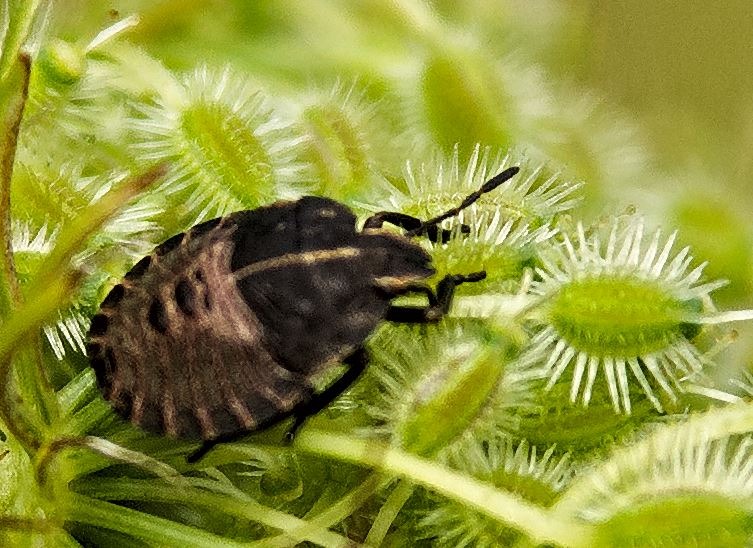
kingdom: Animalia
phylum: Arthropoda
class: Insecta
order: Hemiptera
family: Pentatomidae
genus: Graphosoma
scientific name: Graphosoma italicum
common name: Stribetæge
